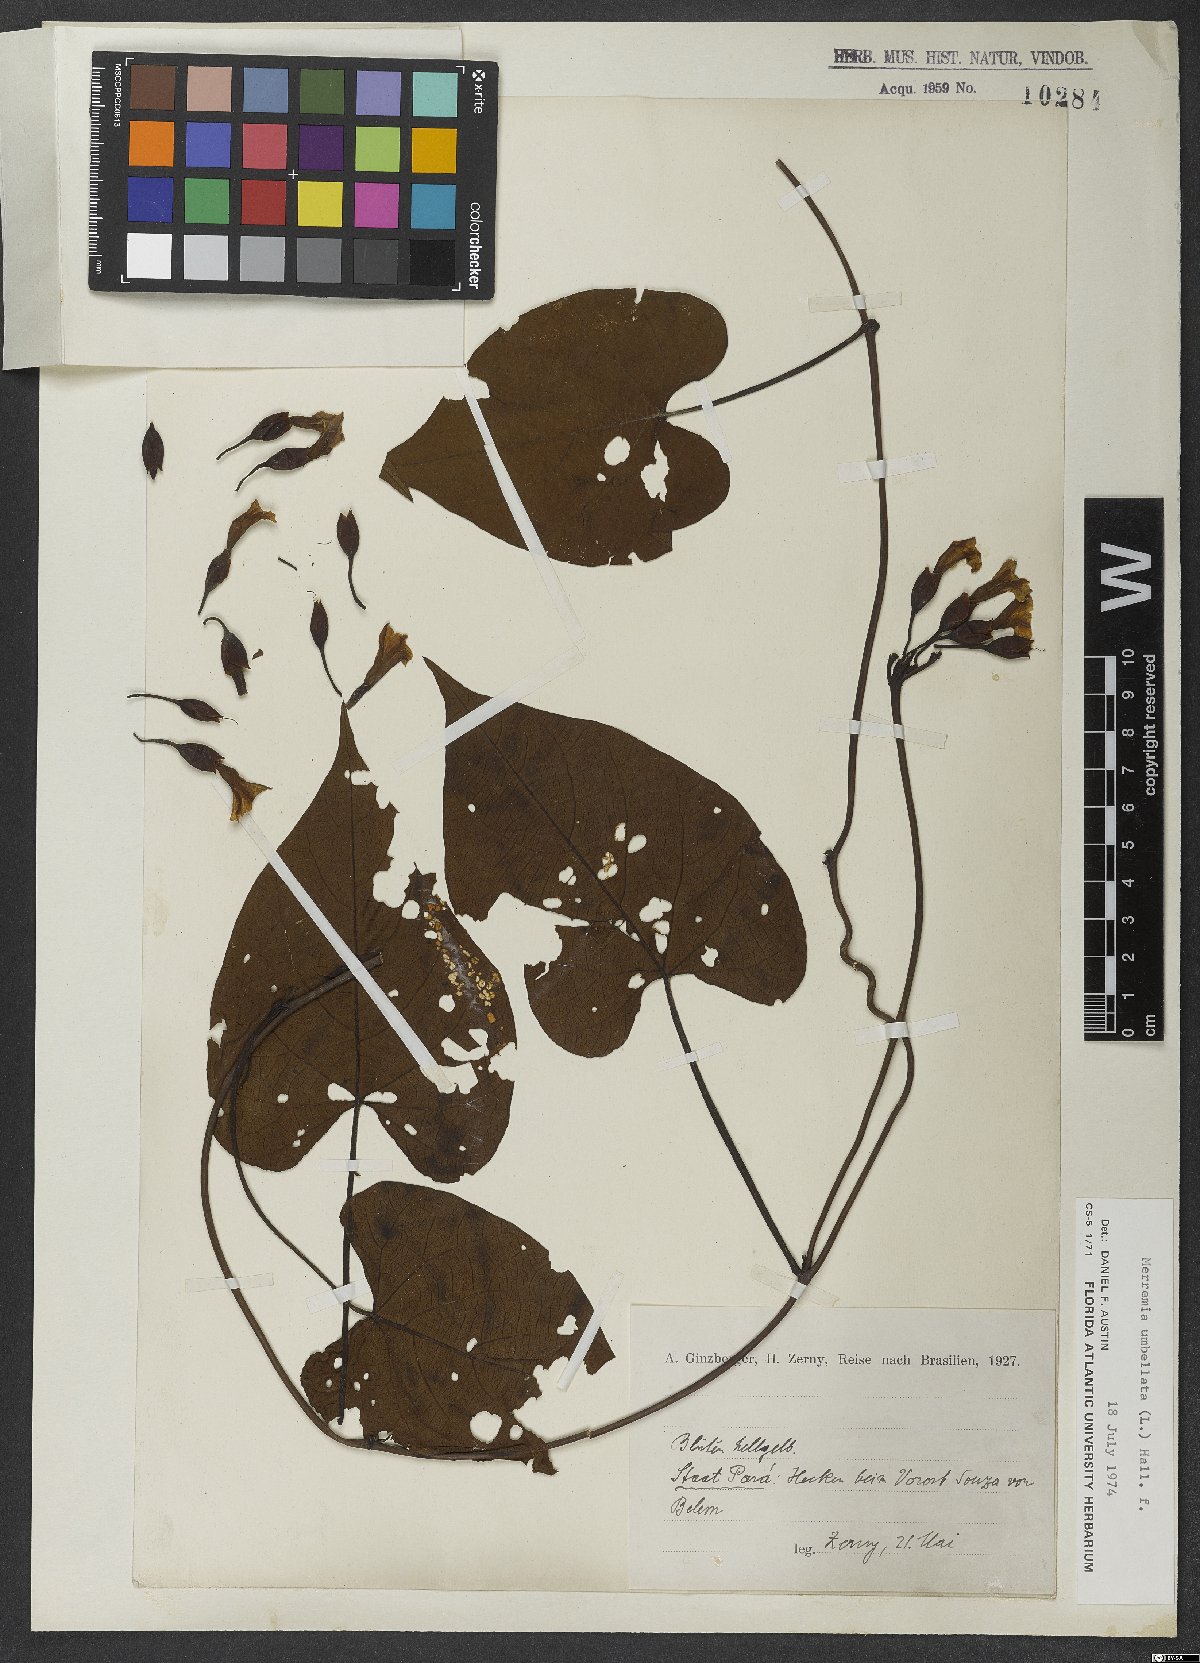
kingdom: Plantae
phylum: Tracheophyta
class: Magnoliopsida
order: Solanales
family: Convolvulaceae
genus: Merremia
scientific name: Merremia
